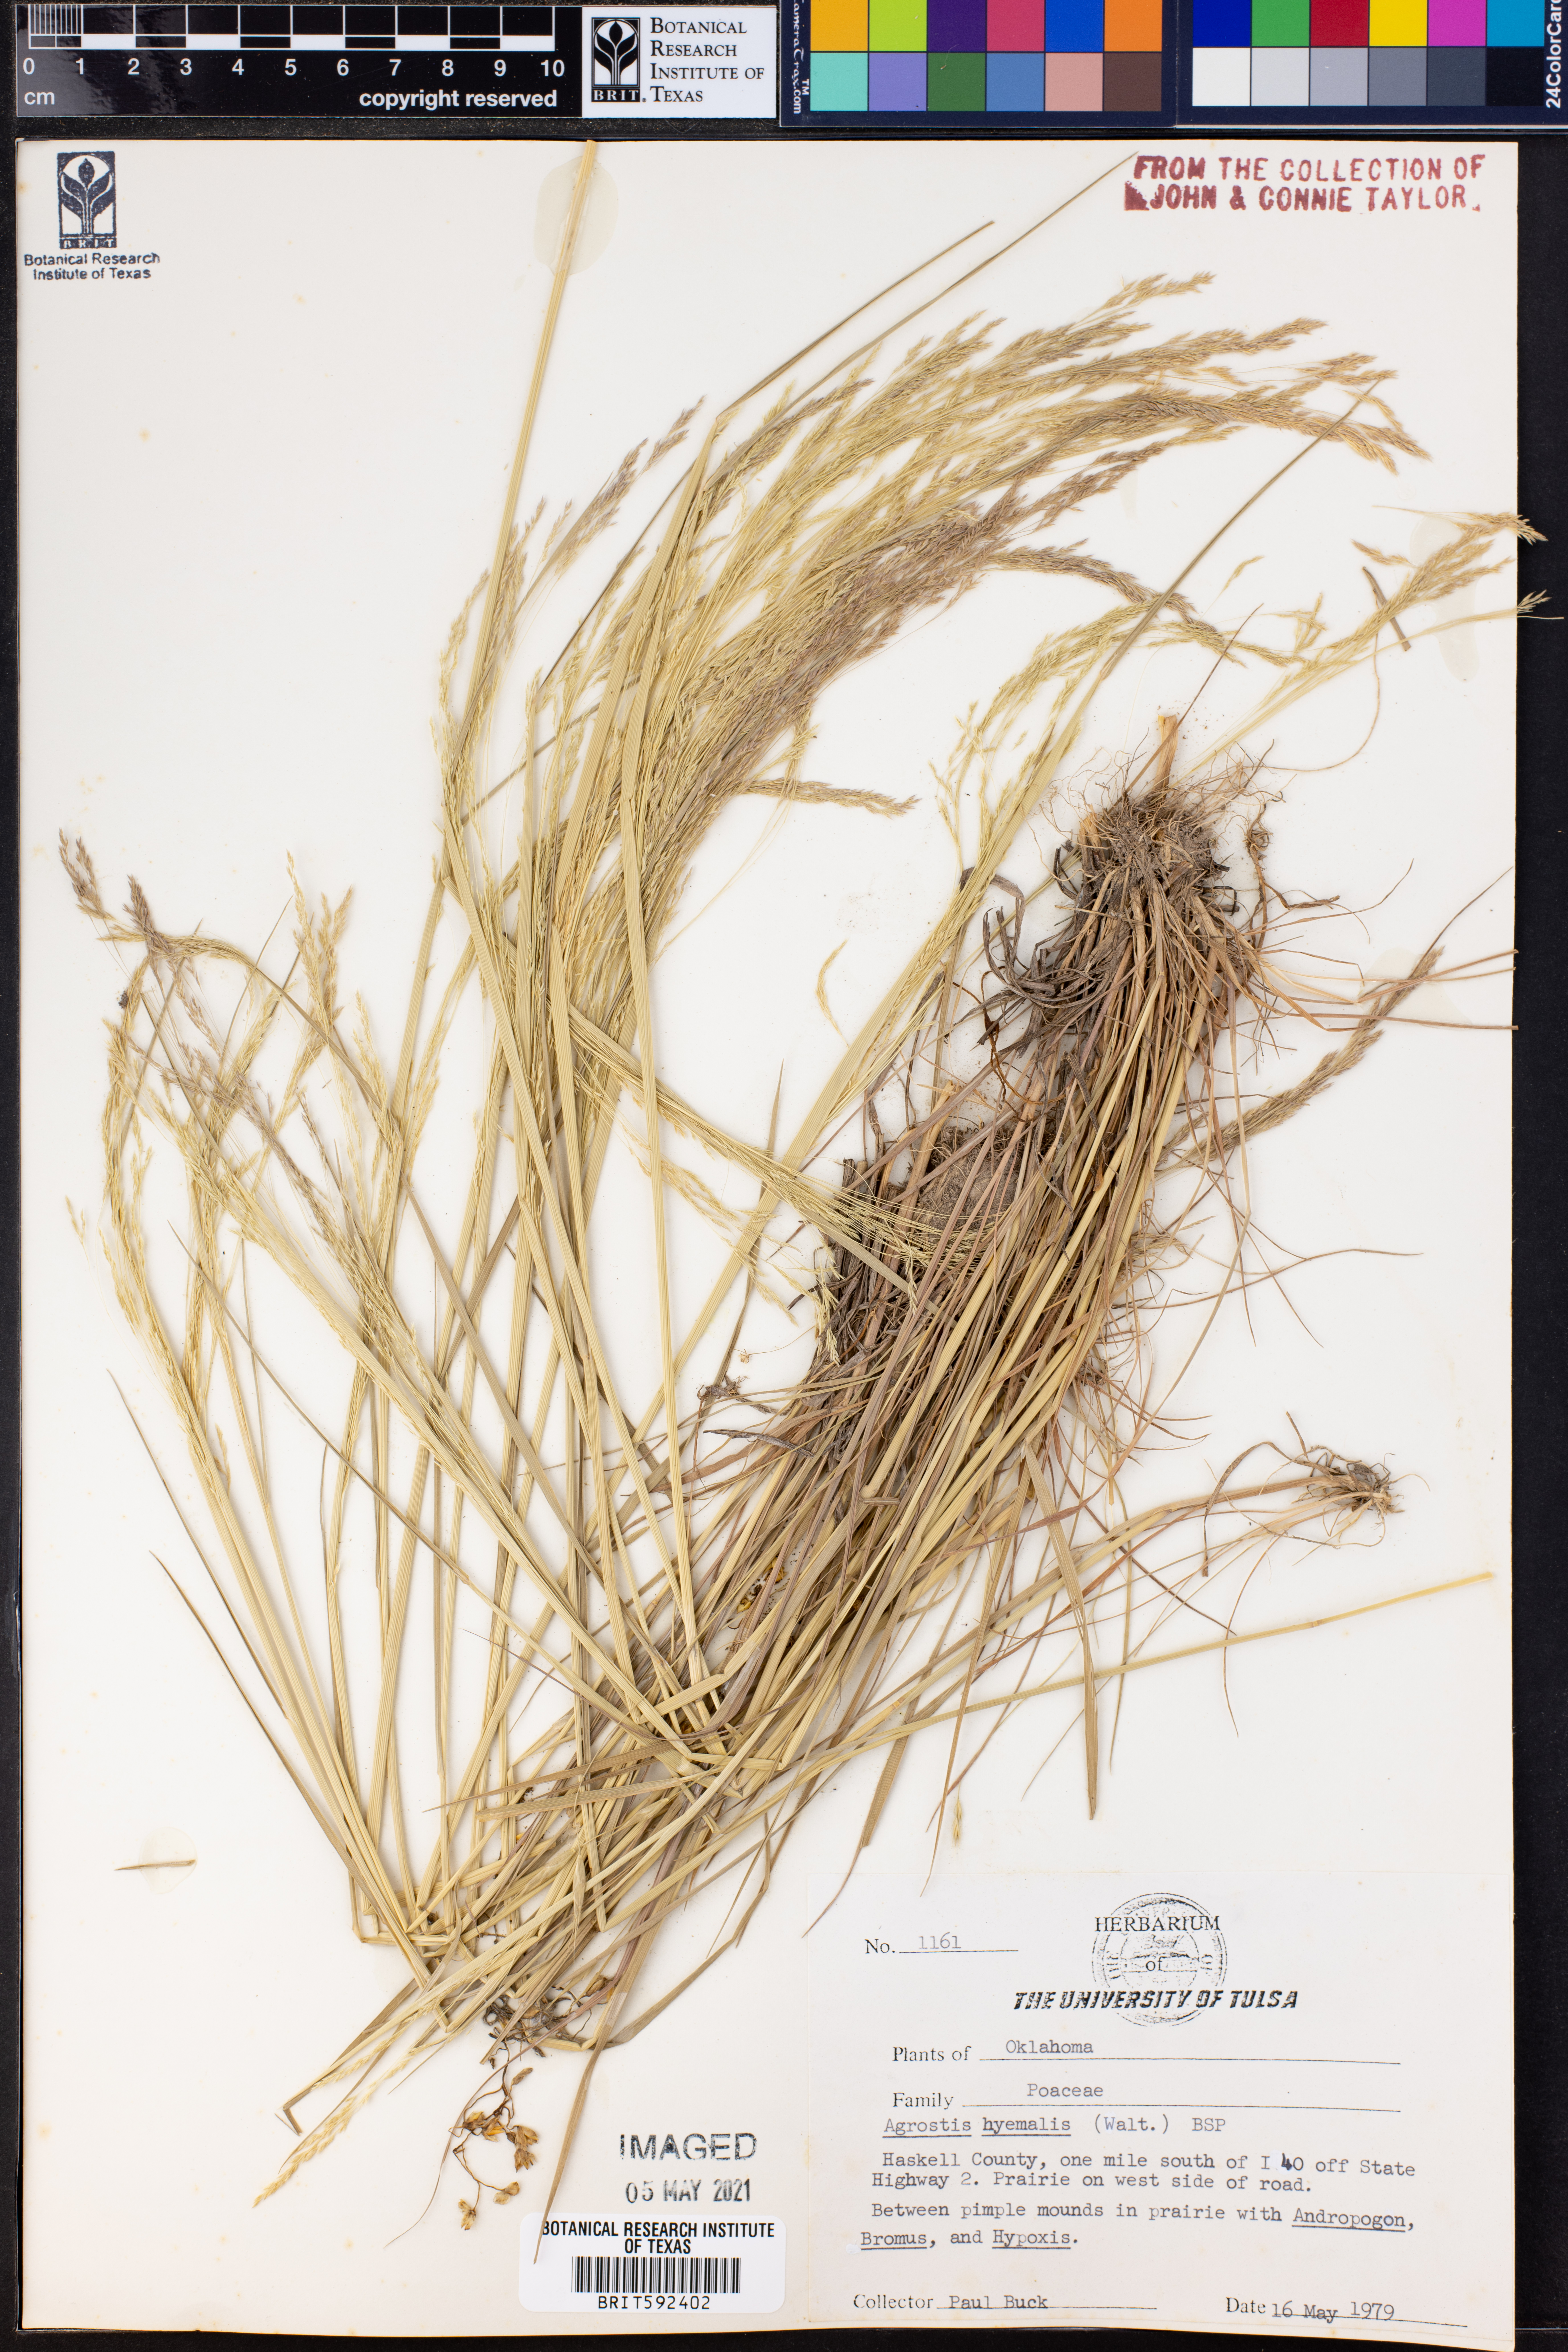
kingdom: Plantae
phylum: Tracheophyta
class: Liliopsida
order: Poales
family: Poaceae
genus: Agrostis
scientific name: Agrostis hyemalis
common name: Small bent
